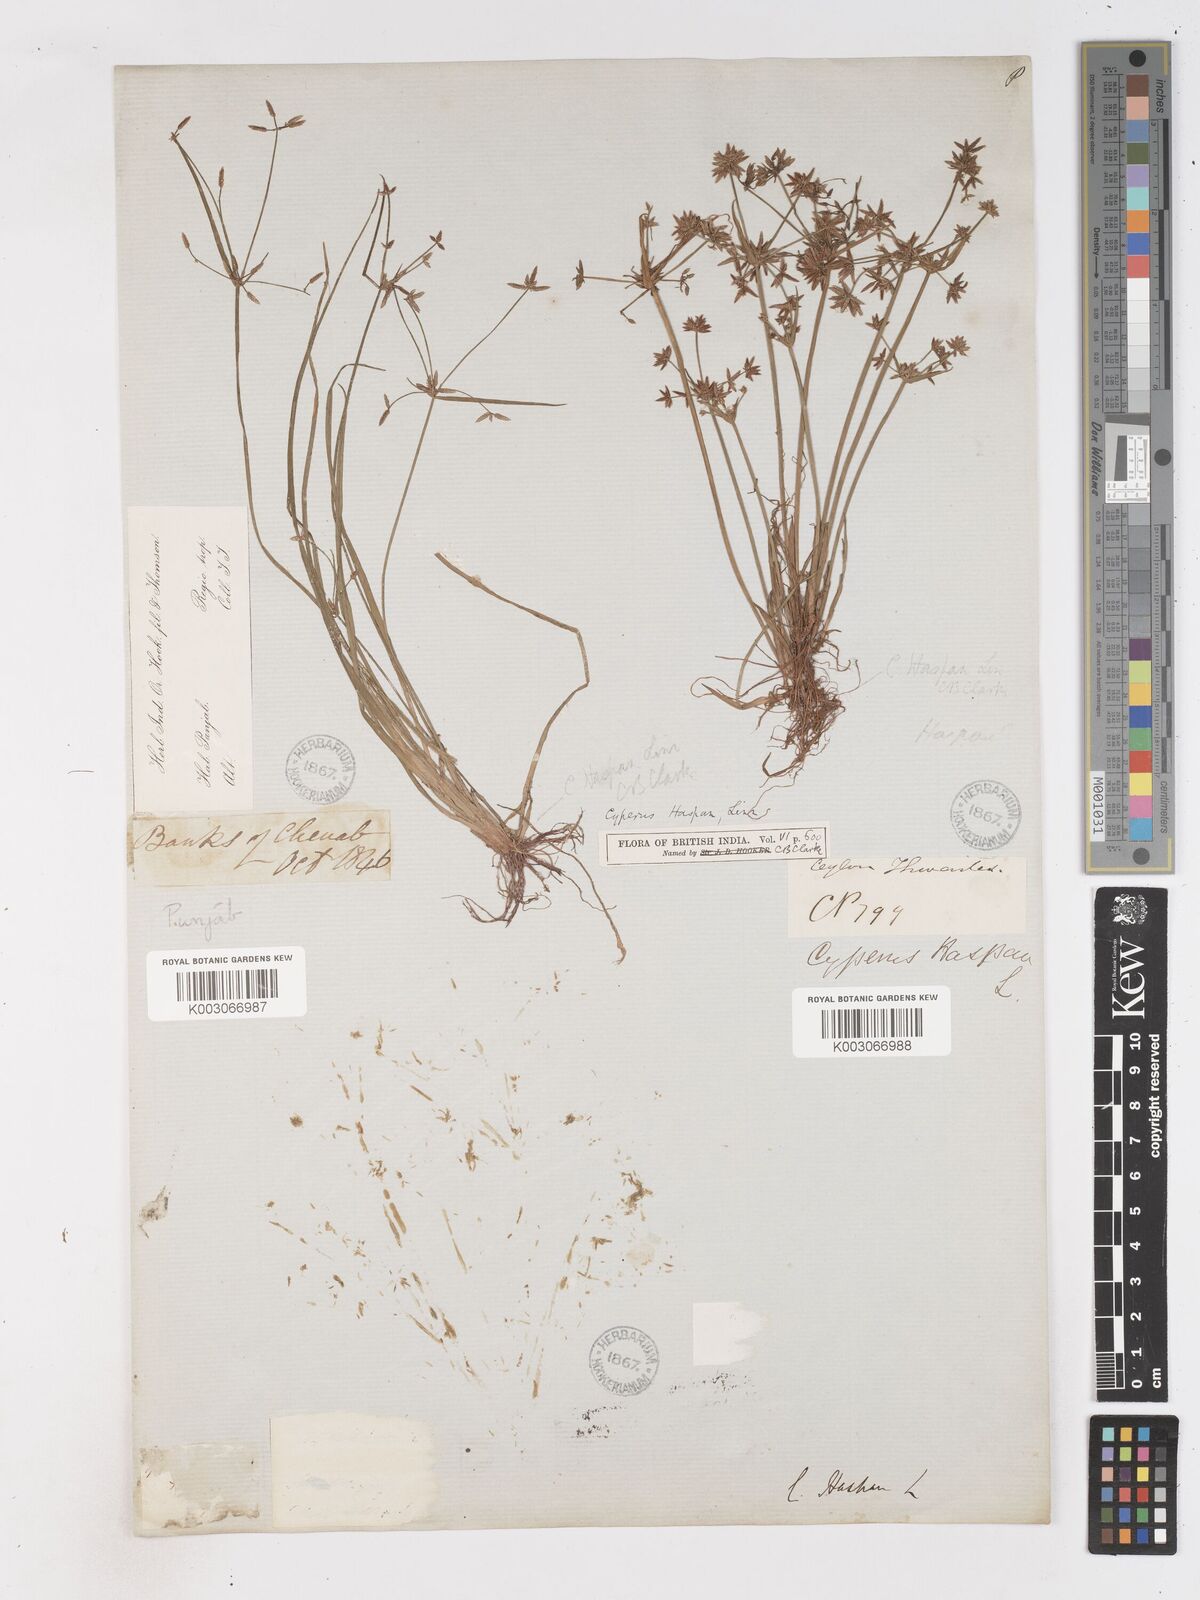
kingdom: Plantae
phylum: Tracheophyta
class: Liliopsida
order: Poales
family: Cyperaceae
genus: Cyperus
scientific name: Cyperus haspan
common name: Haspan flatsedge
